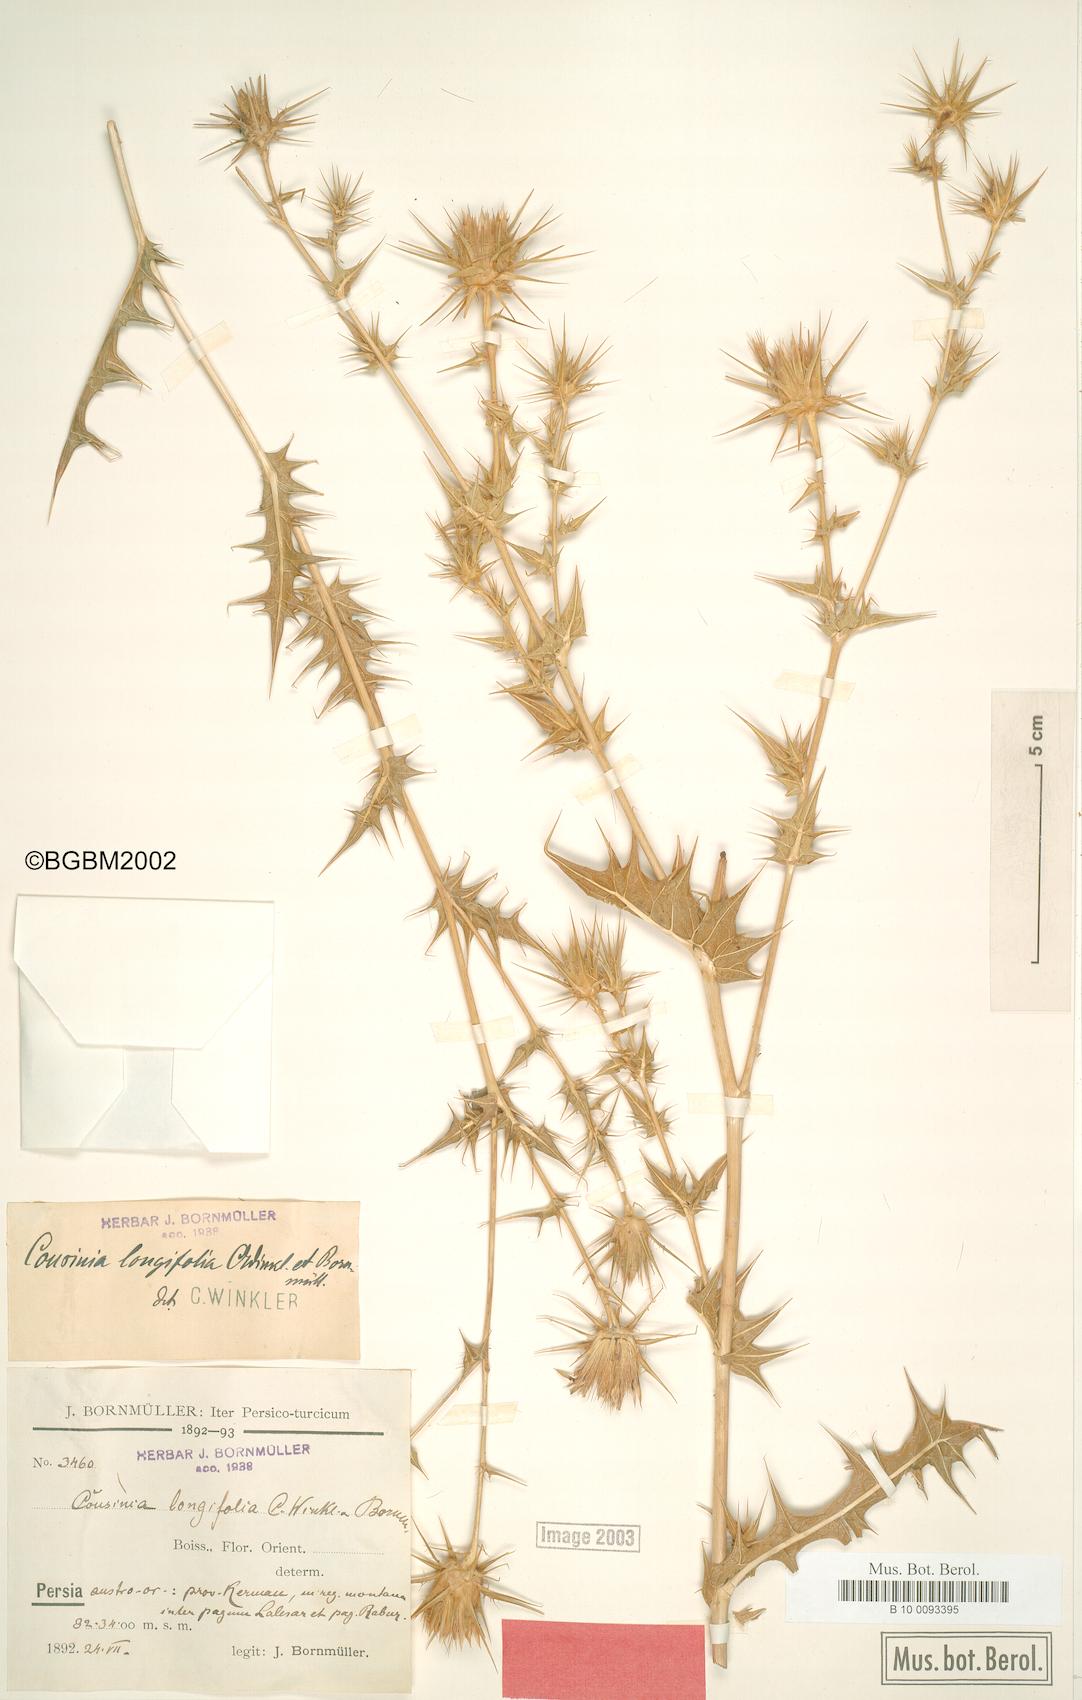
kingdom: Plantae
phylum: Tracheophyta
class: Magnoliopsida
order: Asterales
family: Asteraceae
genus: Cousinia
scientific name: Cousinia longifolia
